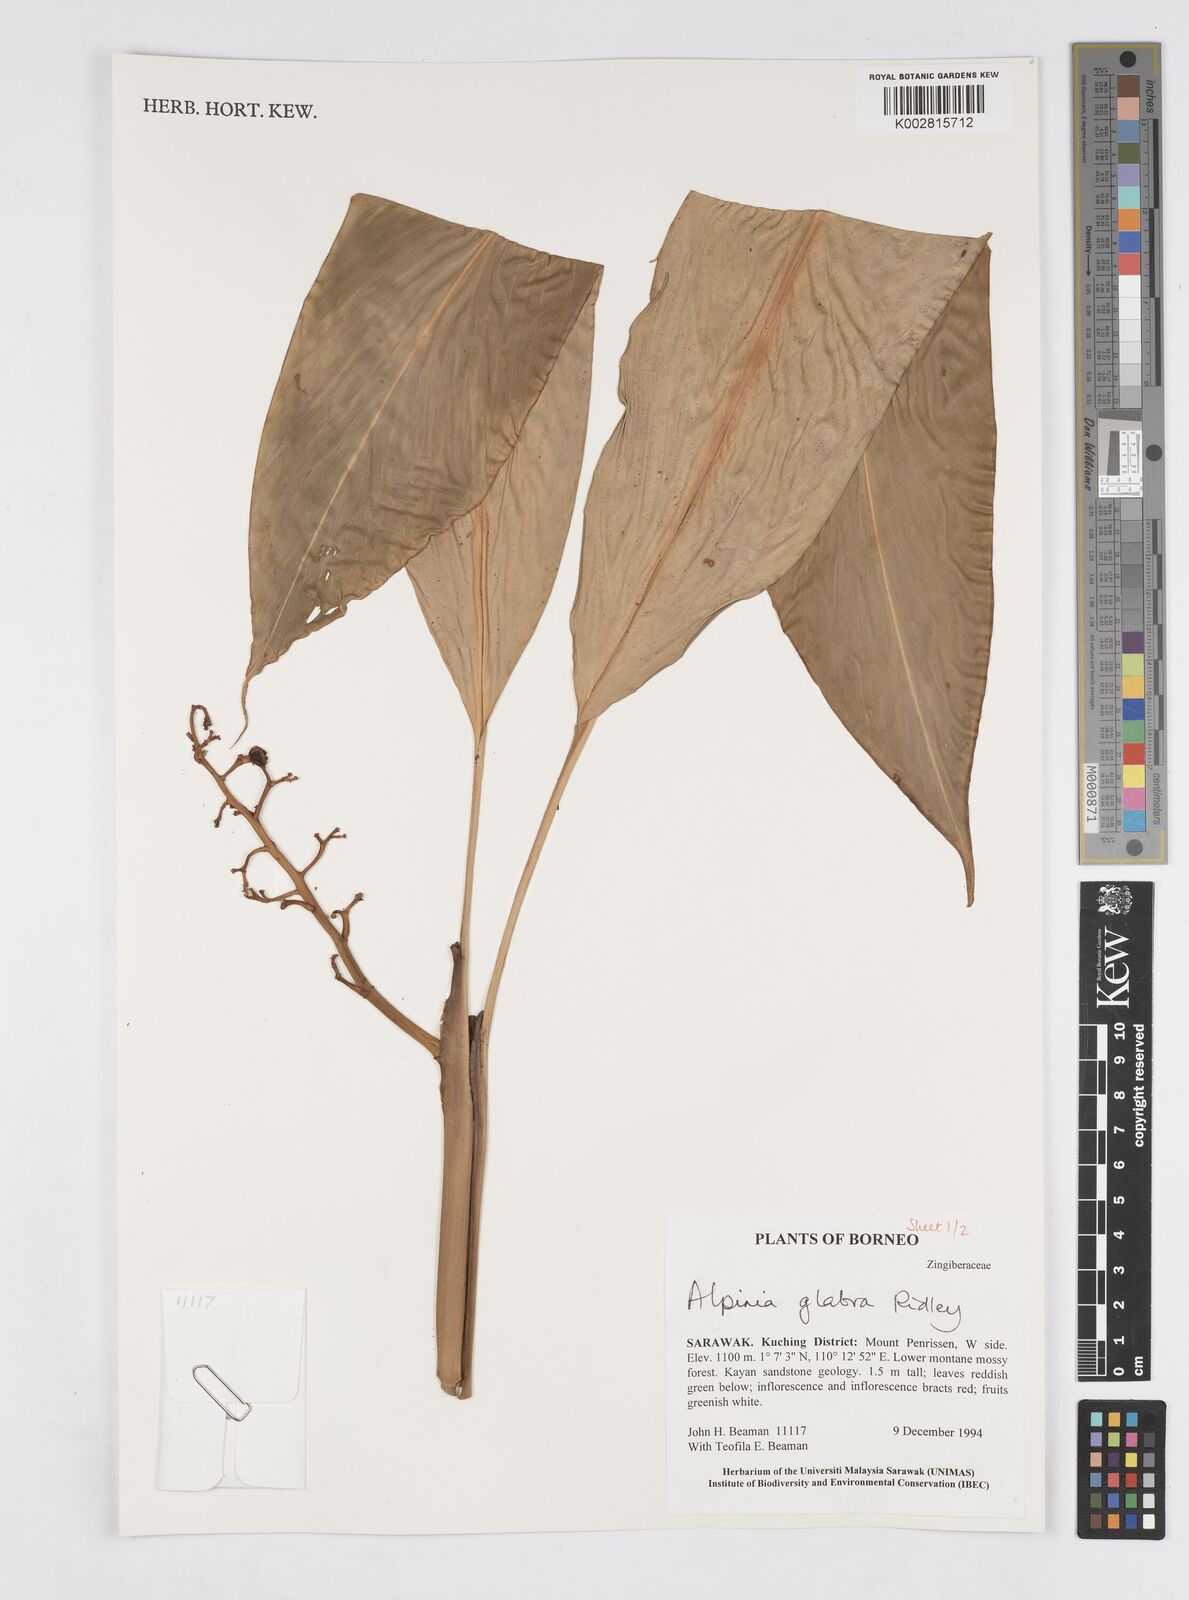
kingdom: Plantae
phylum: Tracheophyta
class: Liliopsida
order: Zingiberales
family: Zingiberaceae
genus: Alpinia
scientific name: Alpinia glabra
